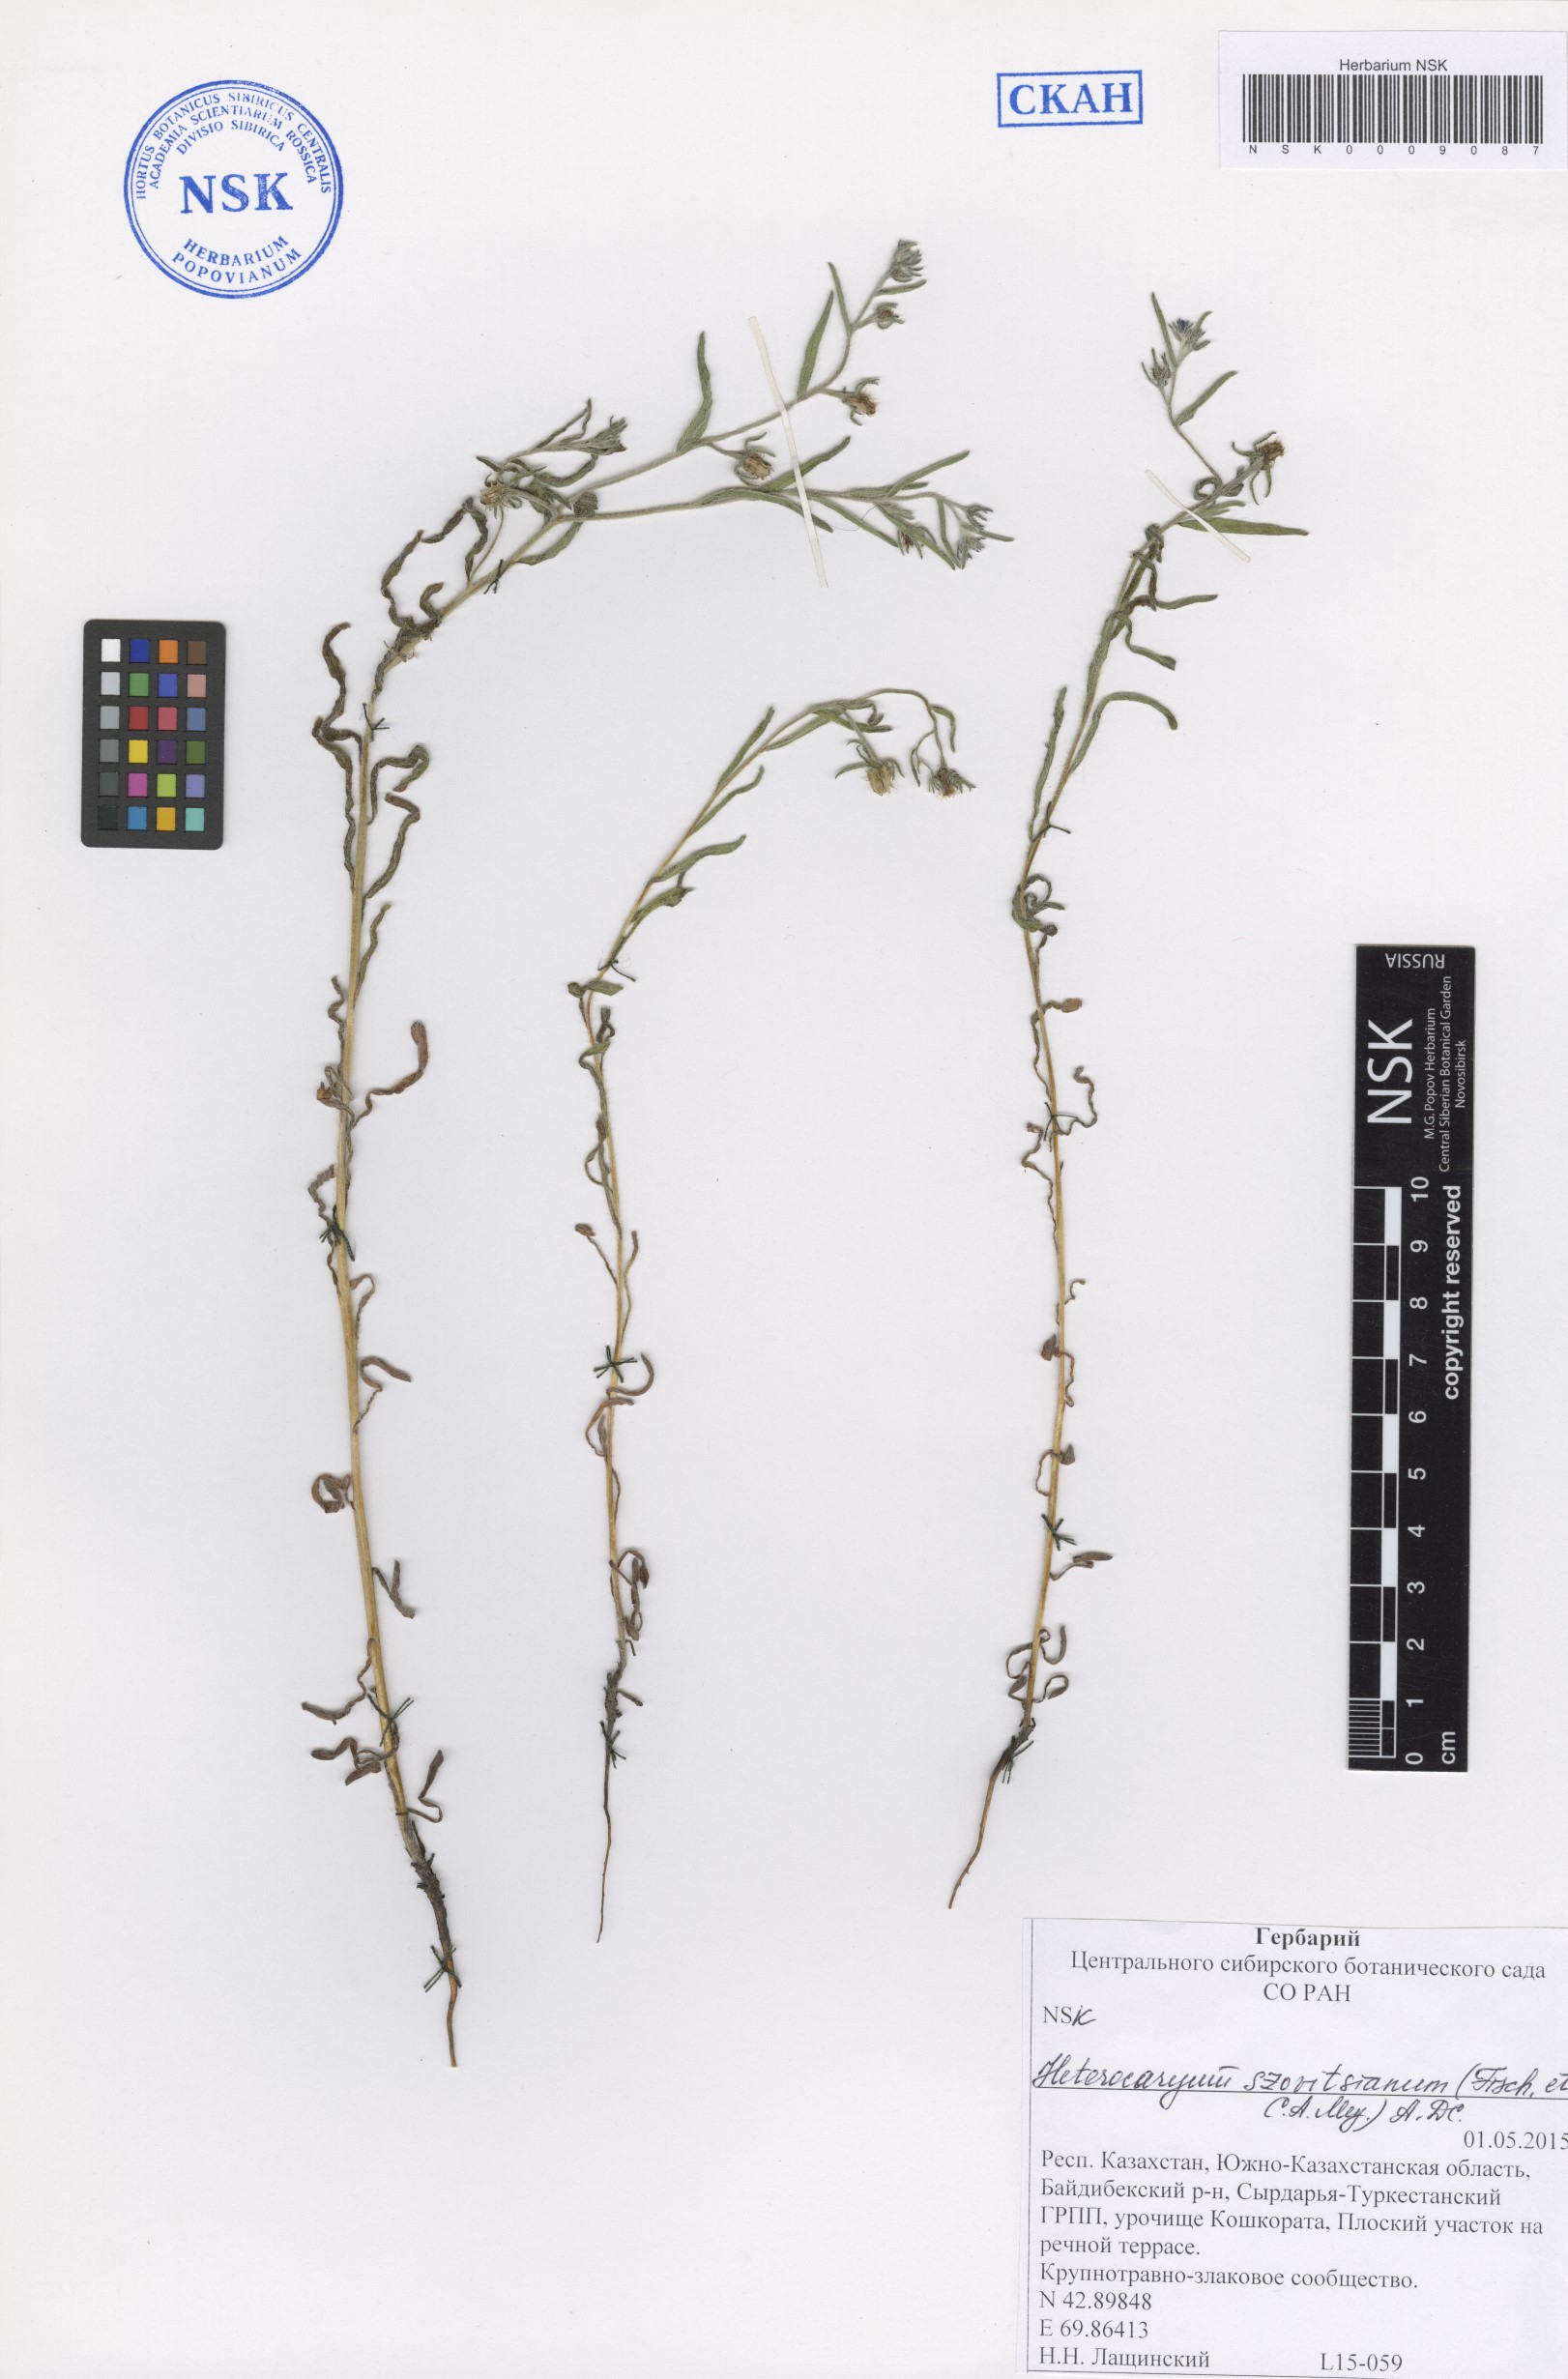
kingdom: Plantae
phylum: Tracheophyta
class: Magnoliopsida
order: Boraginales
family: Boraginaceae
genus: Pseudoheterocaryum
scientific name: Pseudoheterocaryum szovitsianum
